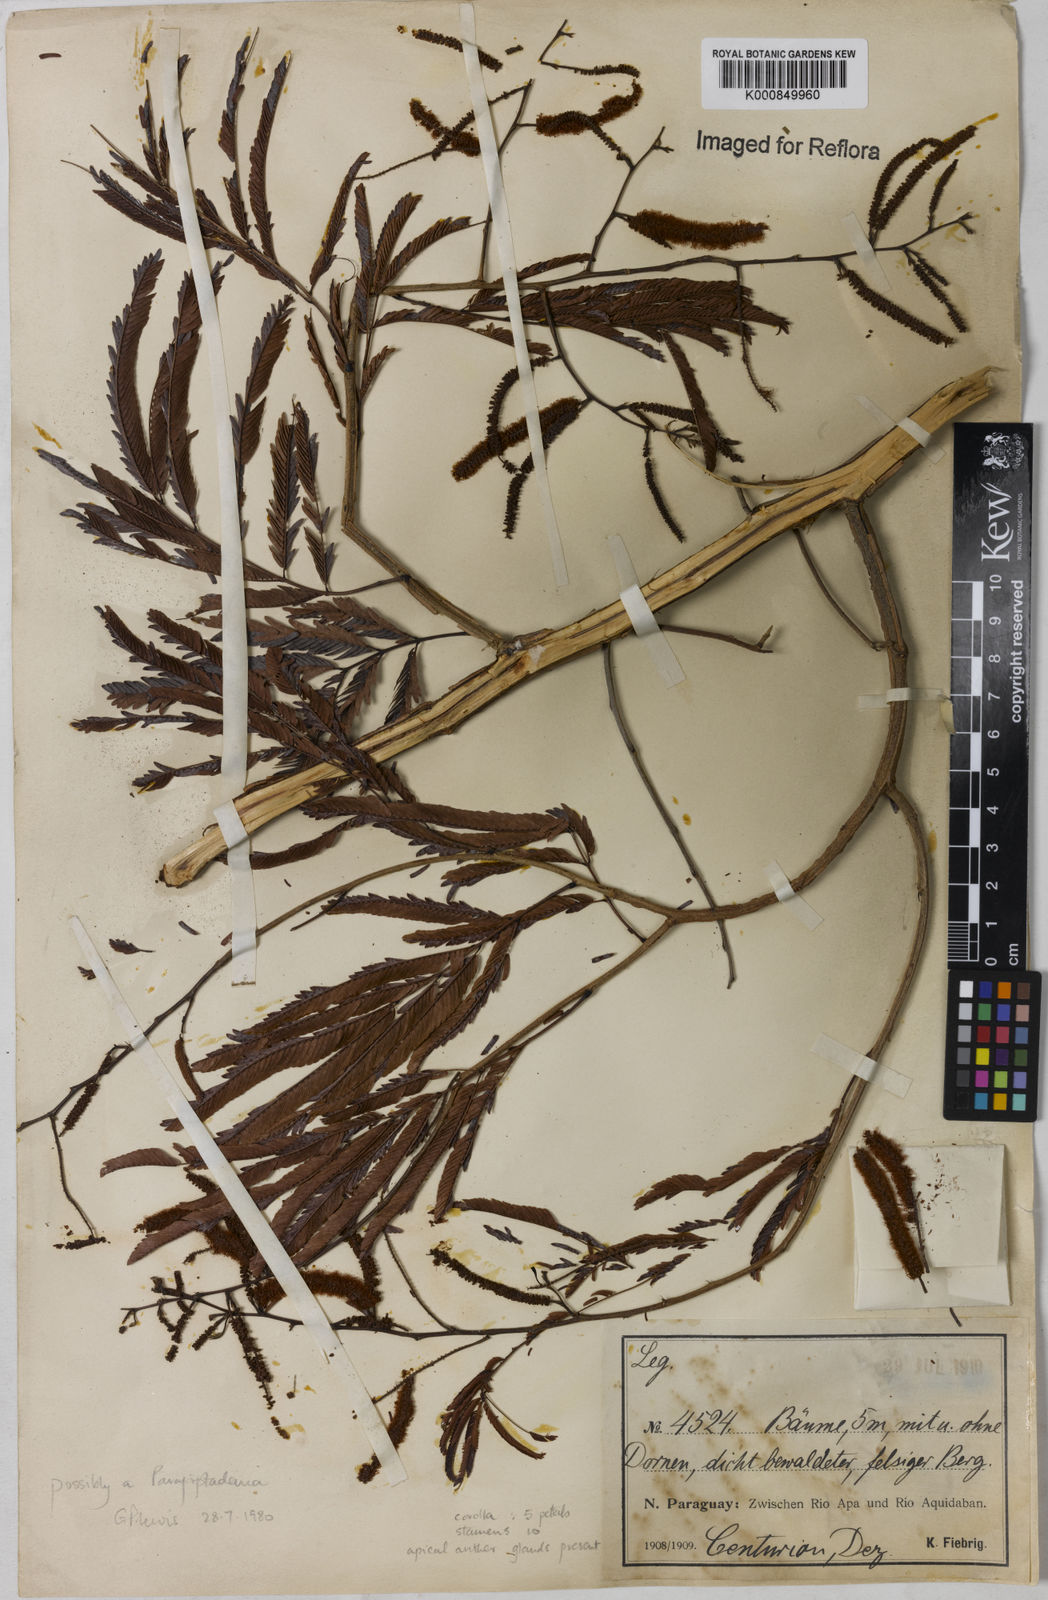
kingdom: Plantae
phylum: Tracheophyta
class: Magnoliopsida
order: Fabales
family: Fabaceae
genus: Piptadenia
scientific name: Piptadenia
